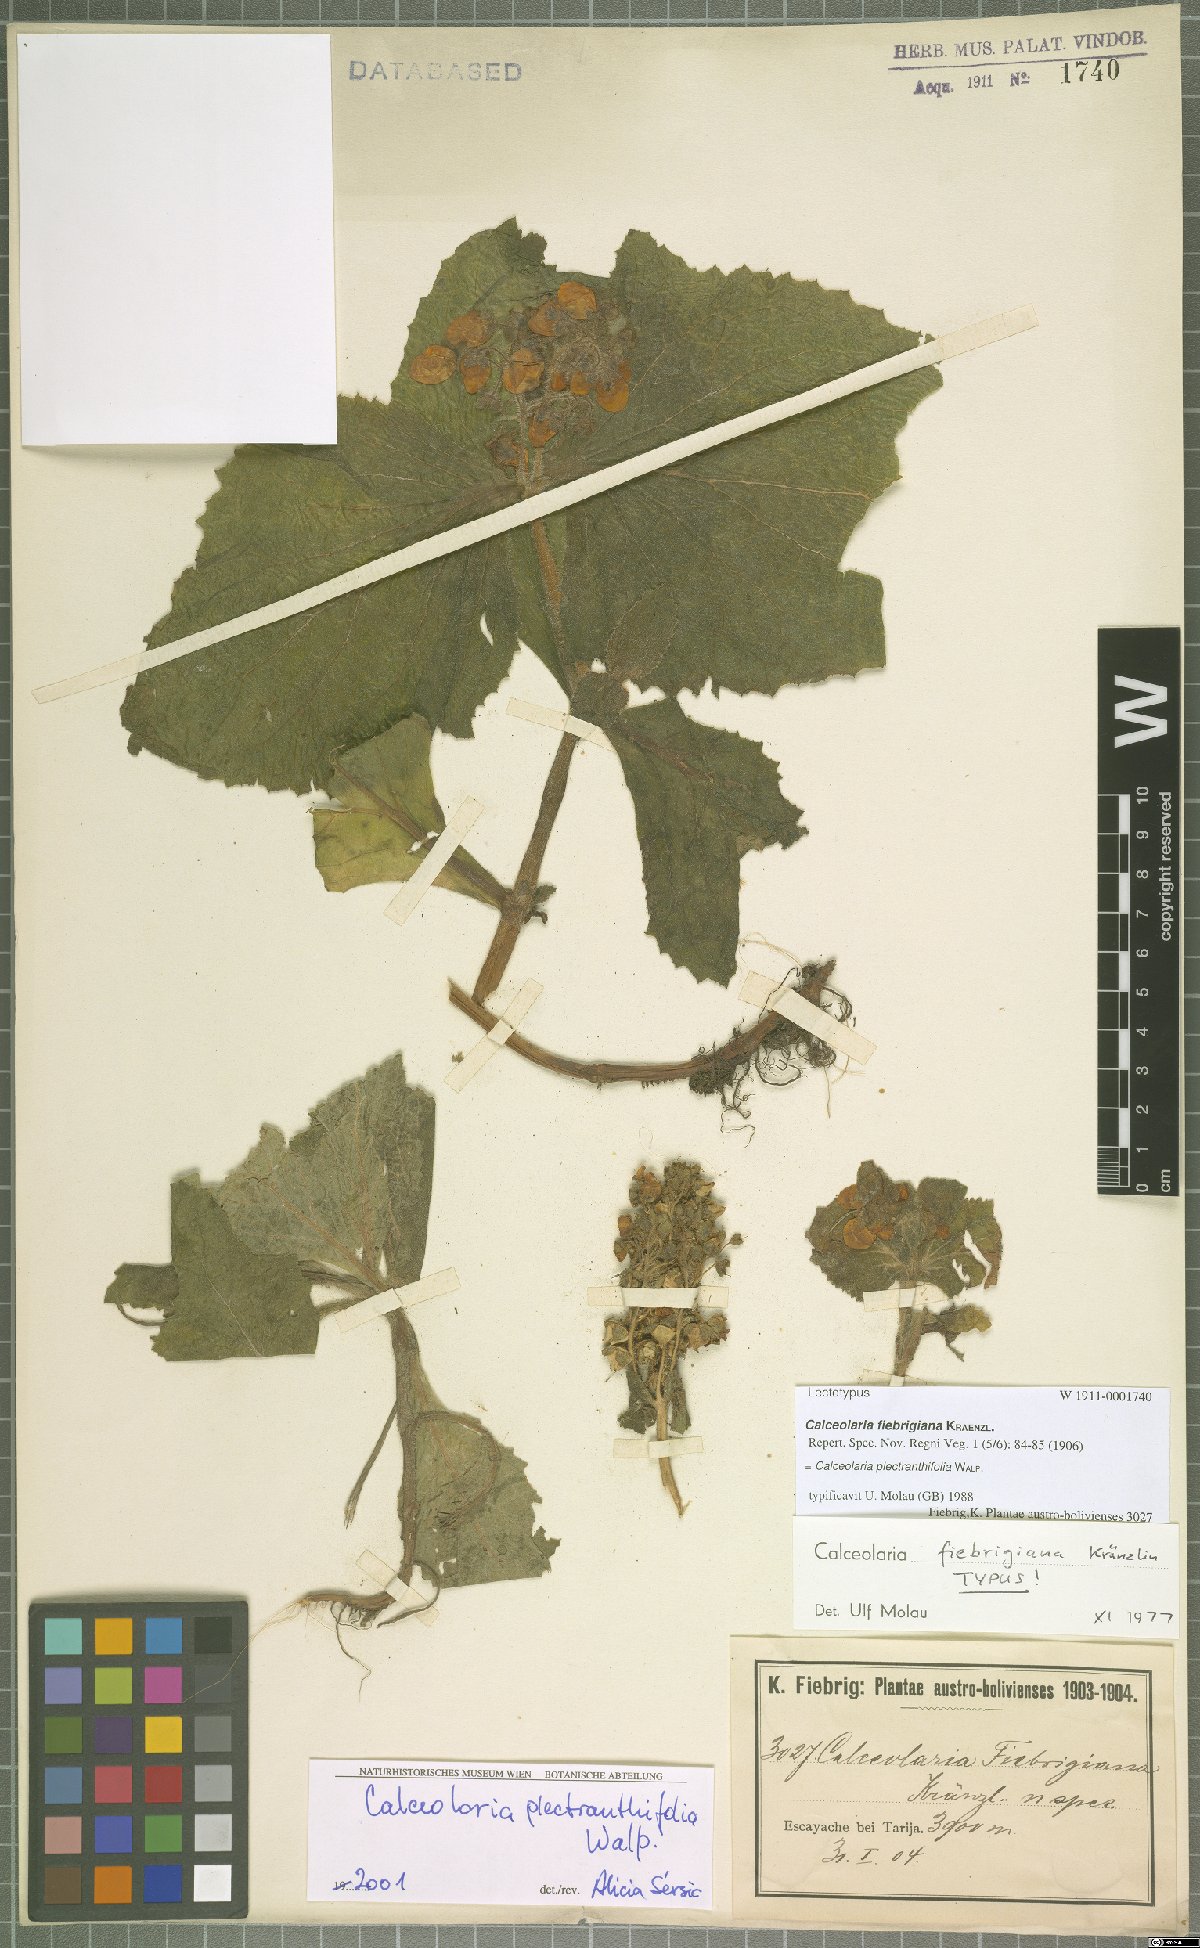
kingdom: Plantae
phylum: Tracheophyta
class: Magnoliopsida
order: Lamiales
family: Calceolariaceae
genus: Calceolaria
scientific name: Calceolaria plectranthifolia
